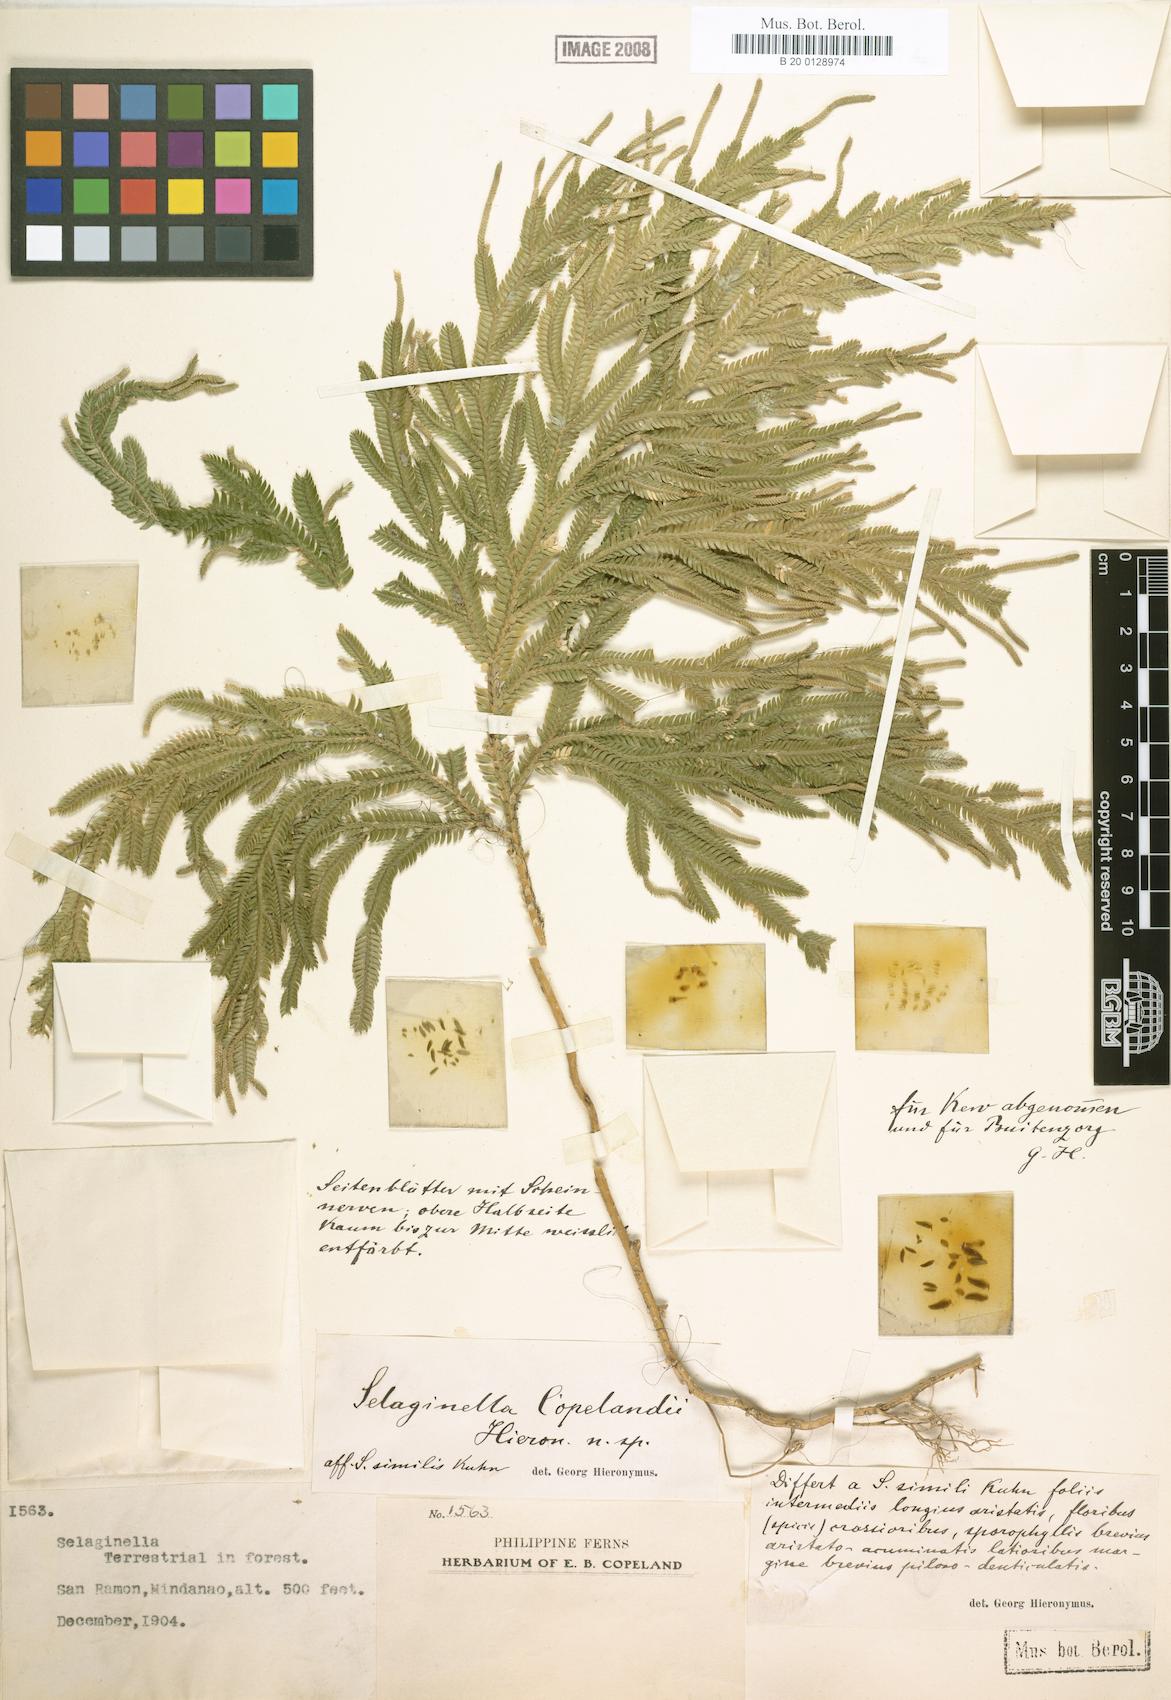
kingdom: Plantae
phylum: Tracheophyta
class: Lycopodiopsida
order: Selaginellales
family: Selaginellaceae
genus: Selaginella
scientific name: Selaginella copelandii
